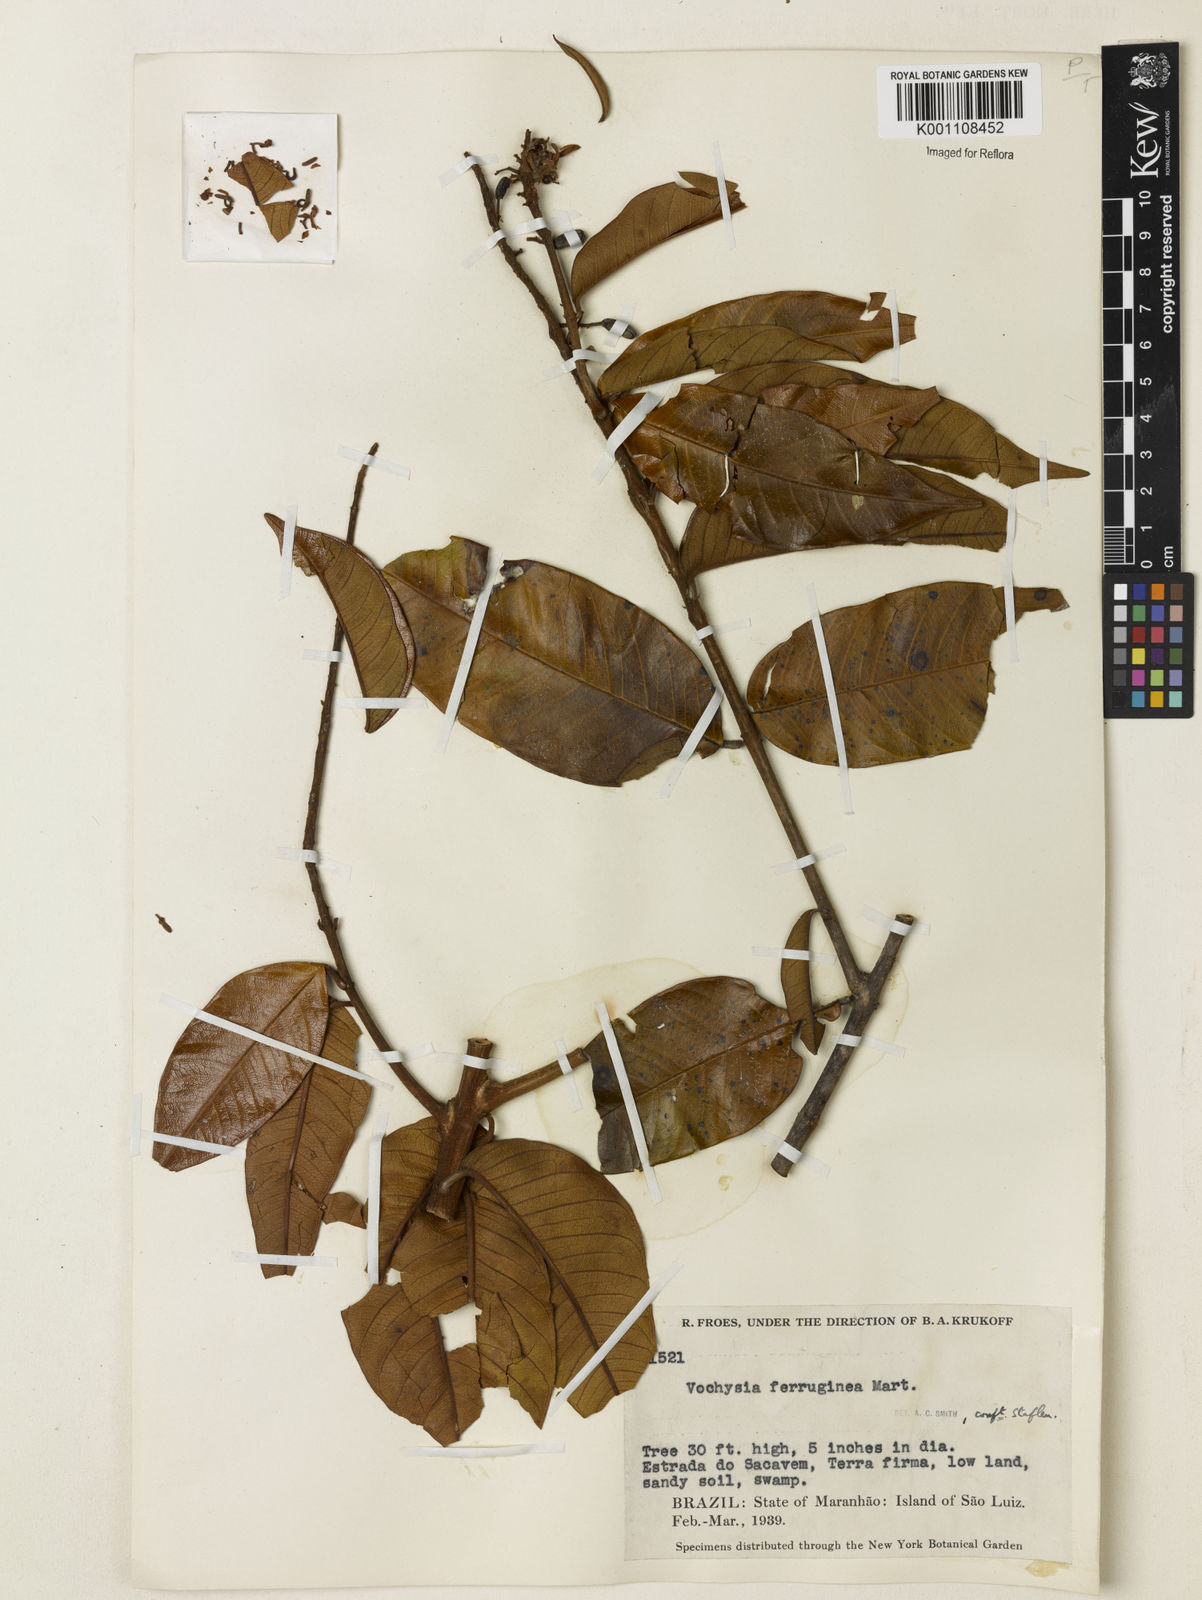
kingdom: Plantae
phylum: Tracheophyta
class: Magnoliopsida
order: Myrtales
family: Vochysiaceae
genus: Vochysia
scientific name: Vochysia ferruginea
